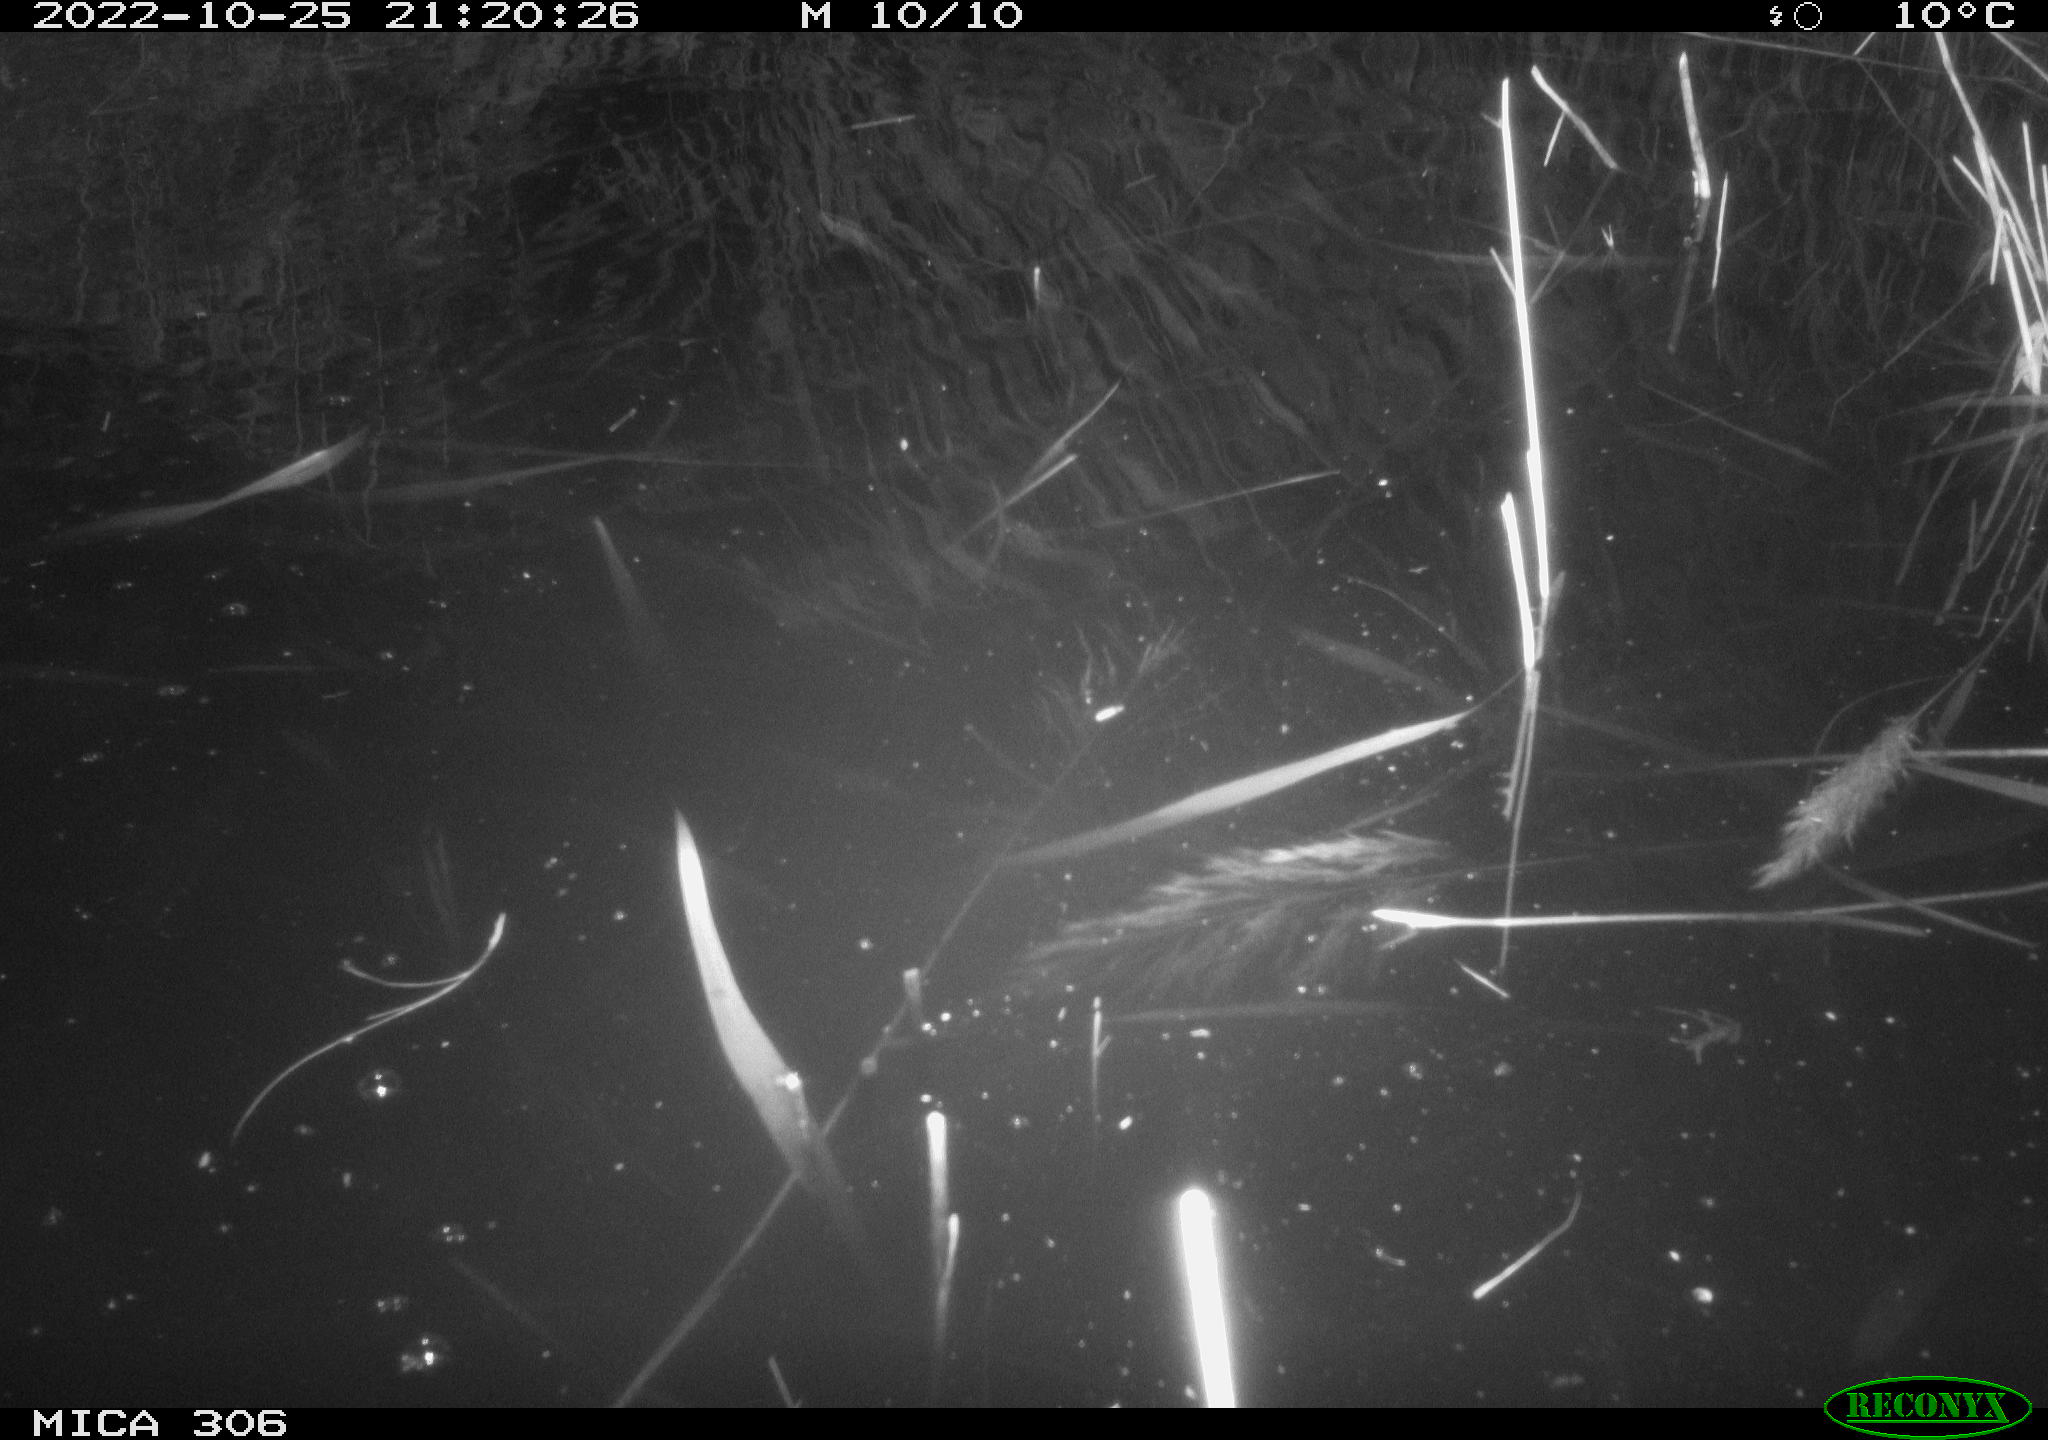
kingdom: Animalia
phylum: Chordata
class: Mammalia
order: Rodentia
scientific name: Rodentia
